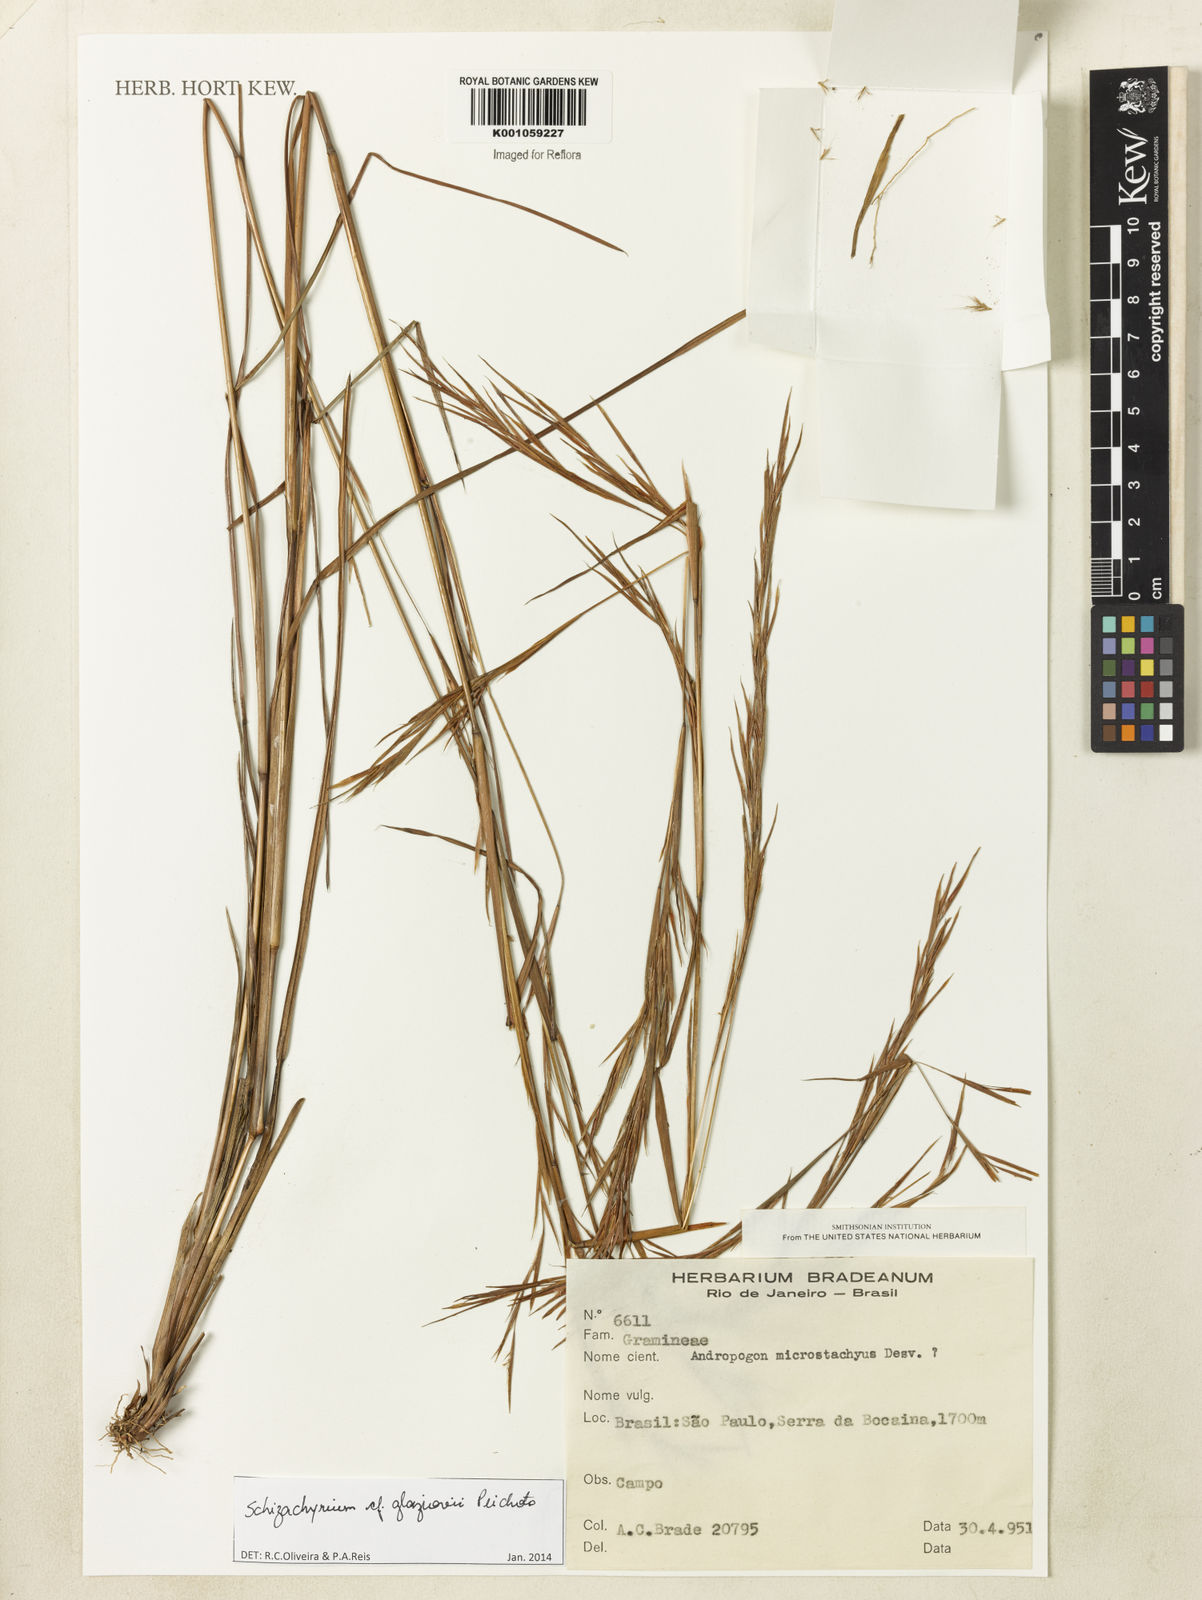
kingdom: Plantae
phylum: Tracheophyta
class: Liliopsida
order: Poales
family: Poaceae
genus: Schizachyrium
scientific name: Schizachyrium glaziovii
